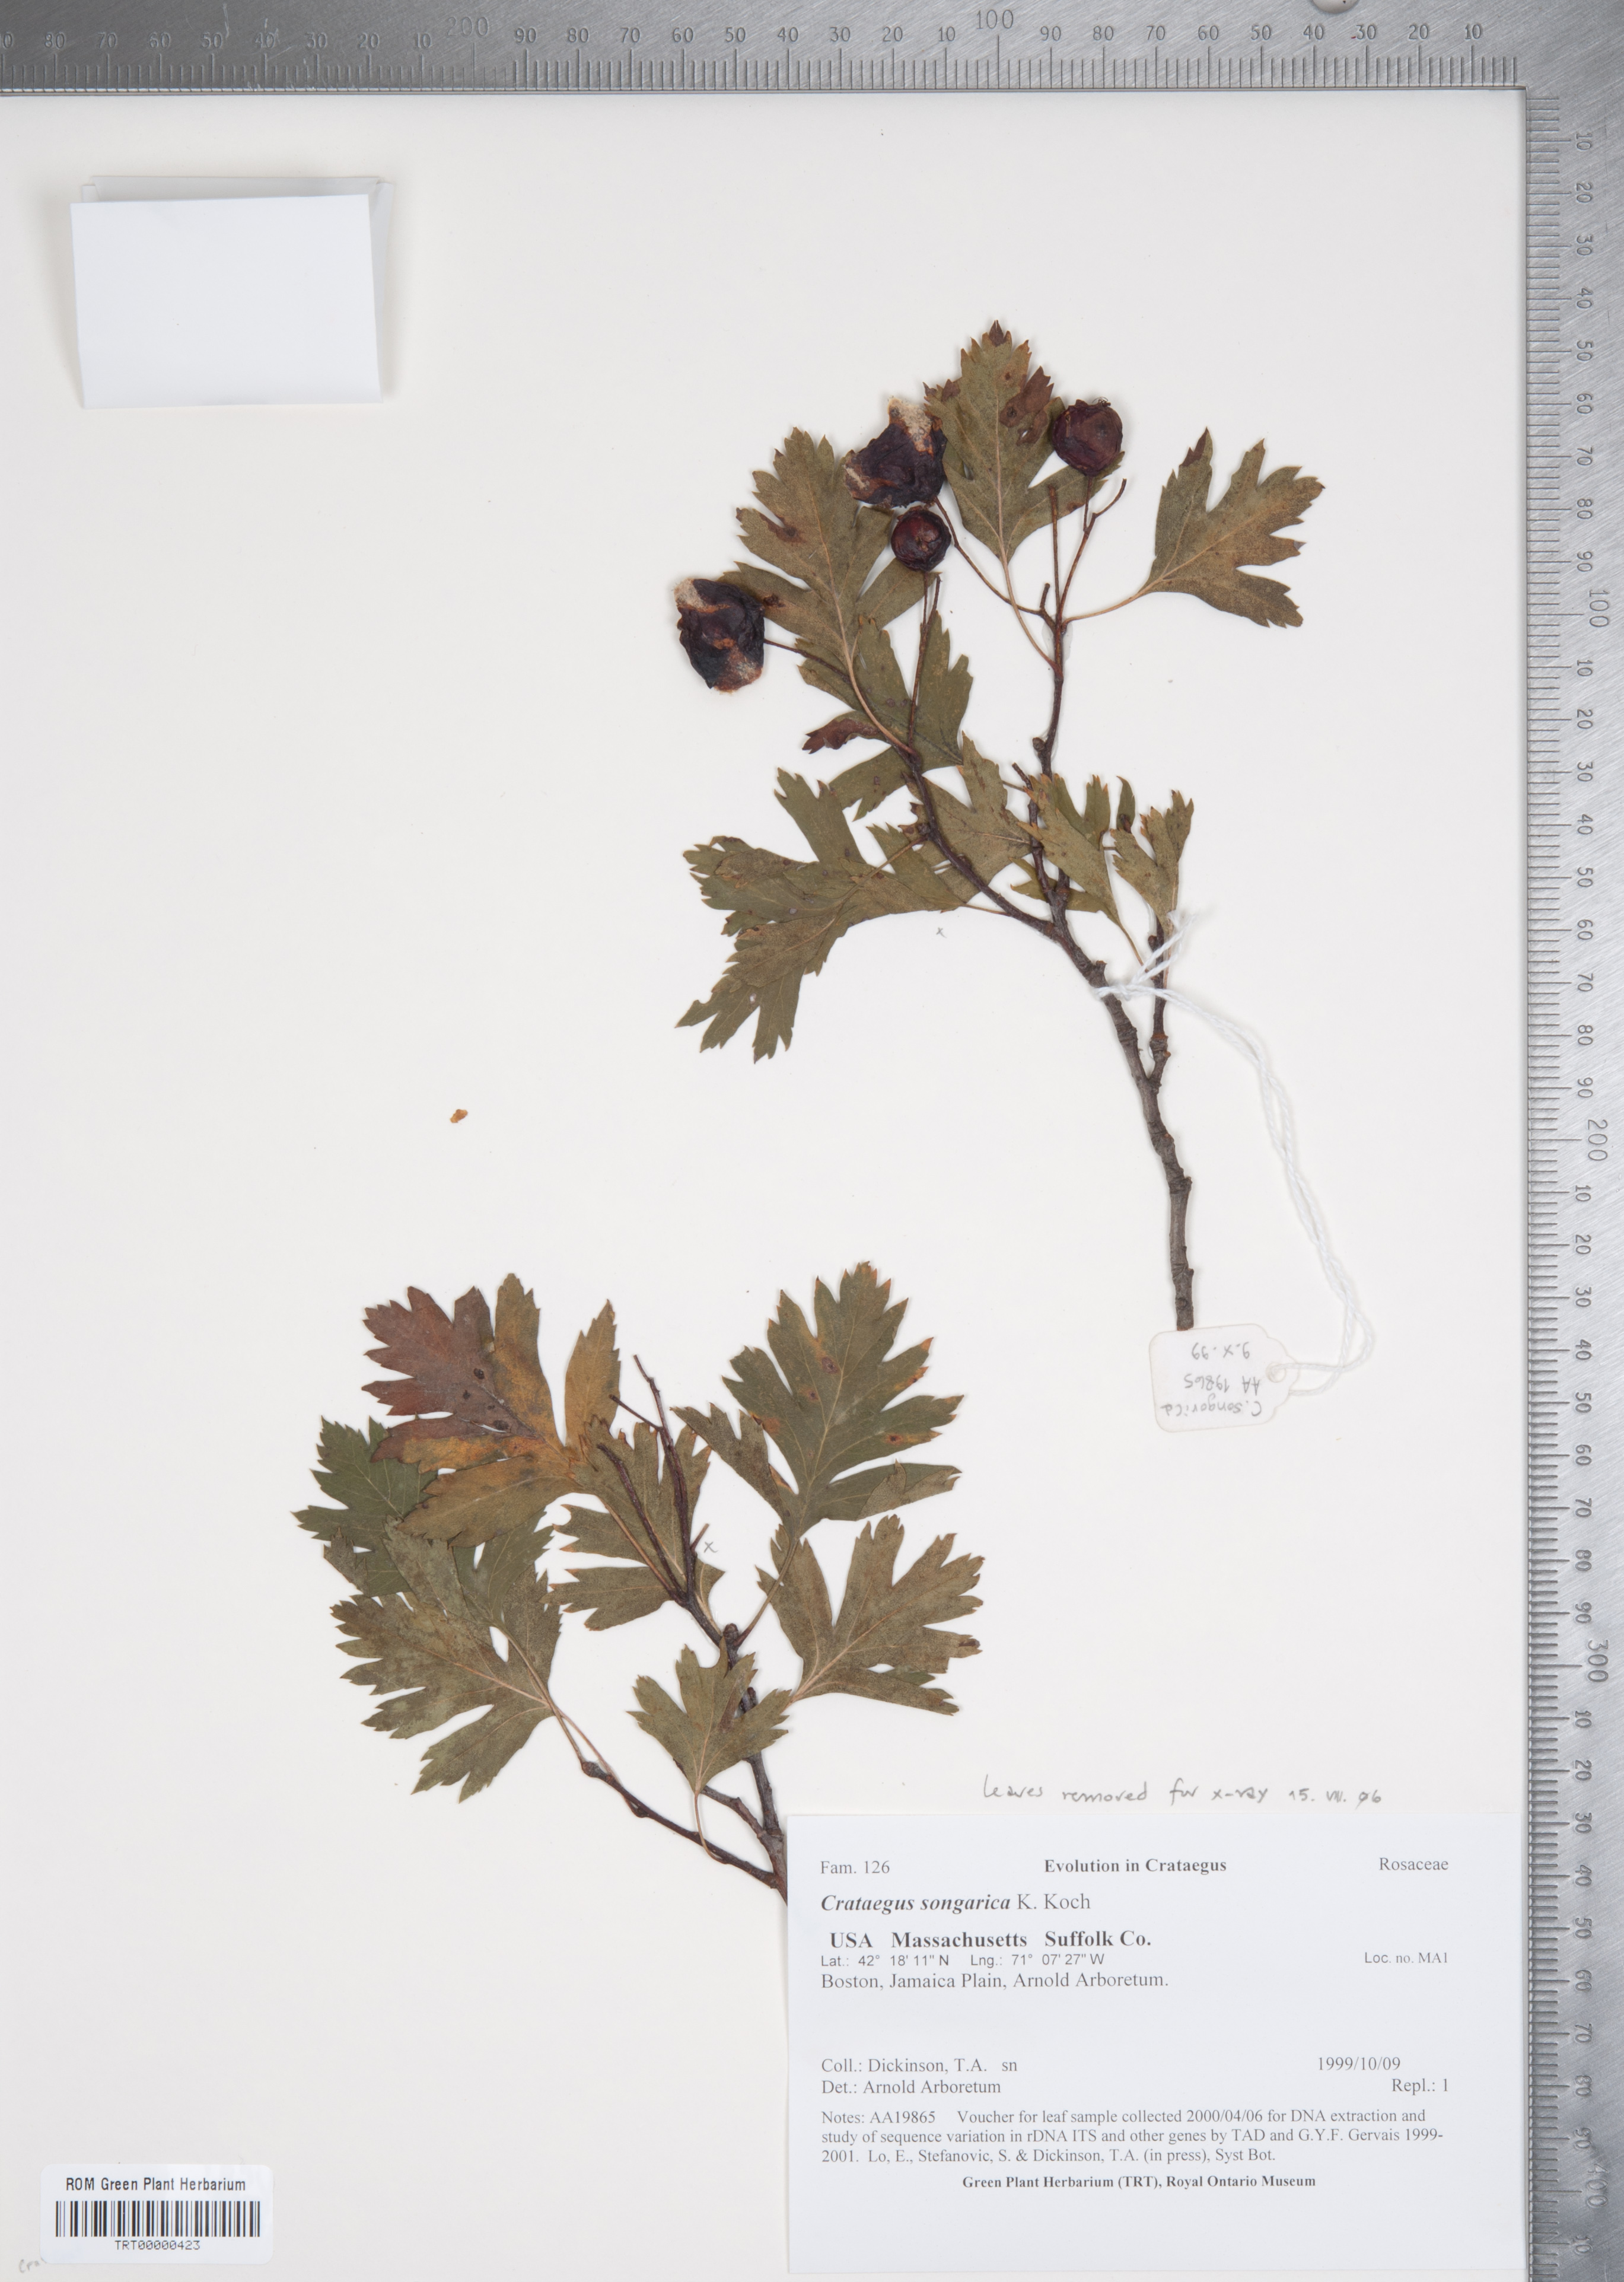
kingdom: Plantae
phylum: Tracheophyta
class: Magnoliopsida
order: Rosales
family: Rosaceae
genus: Crataegus
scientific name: Crataegus songarica
